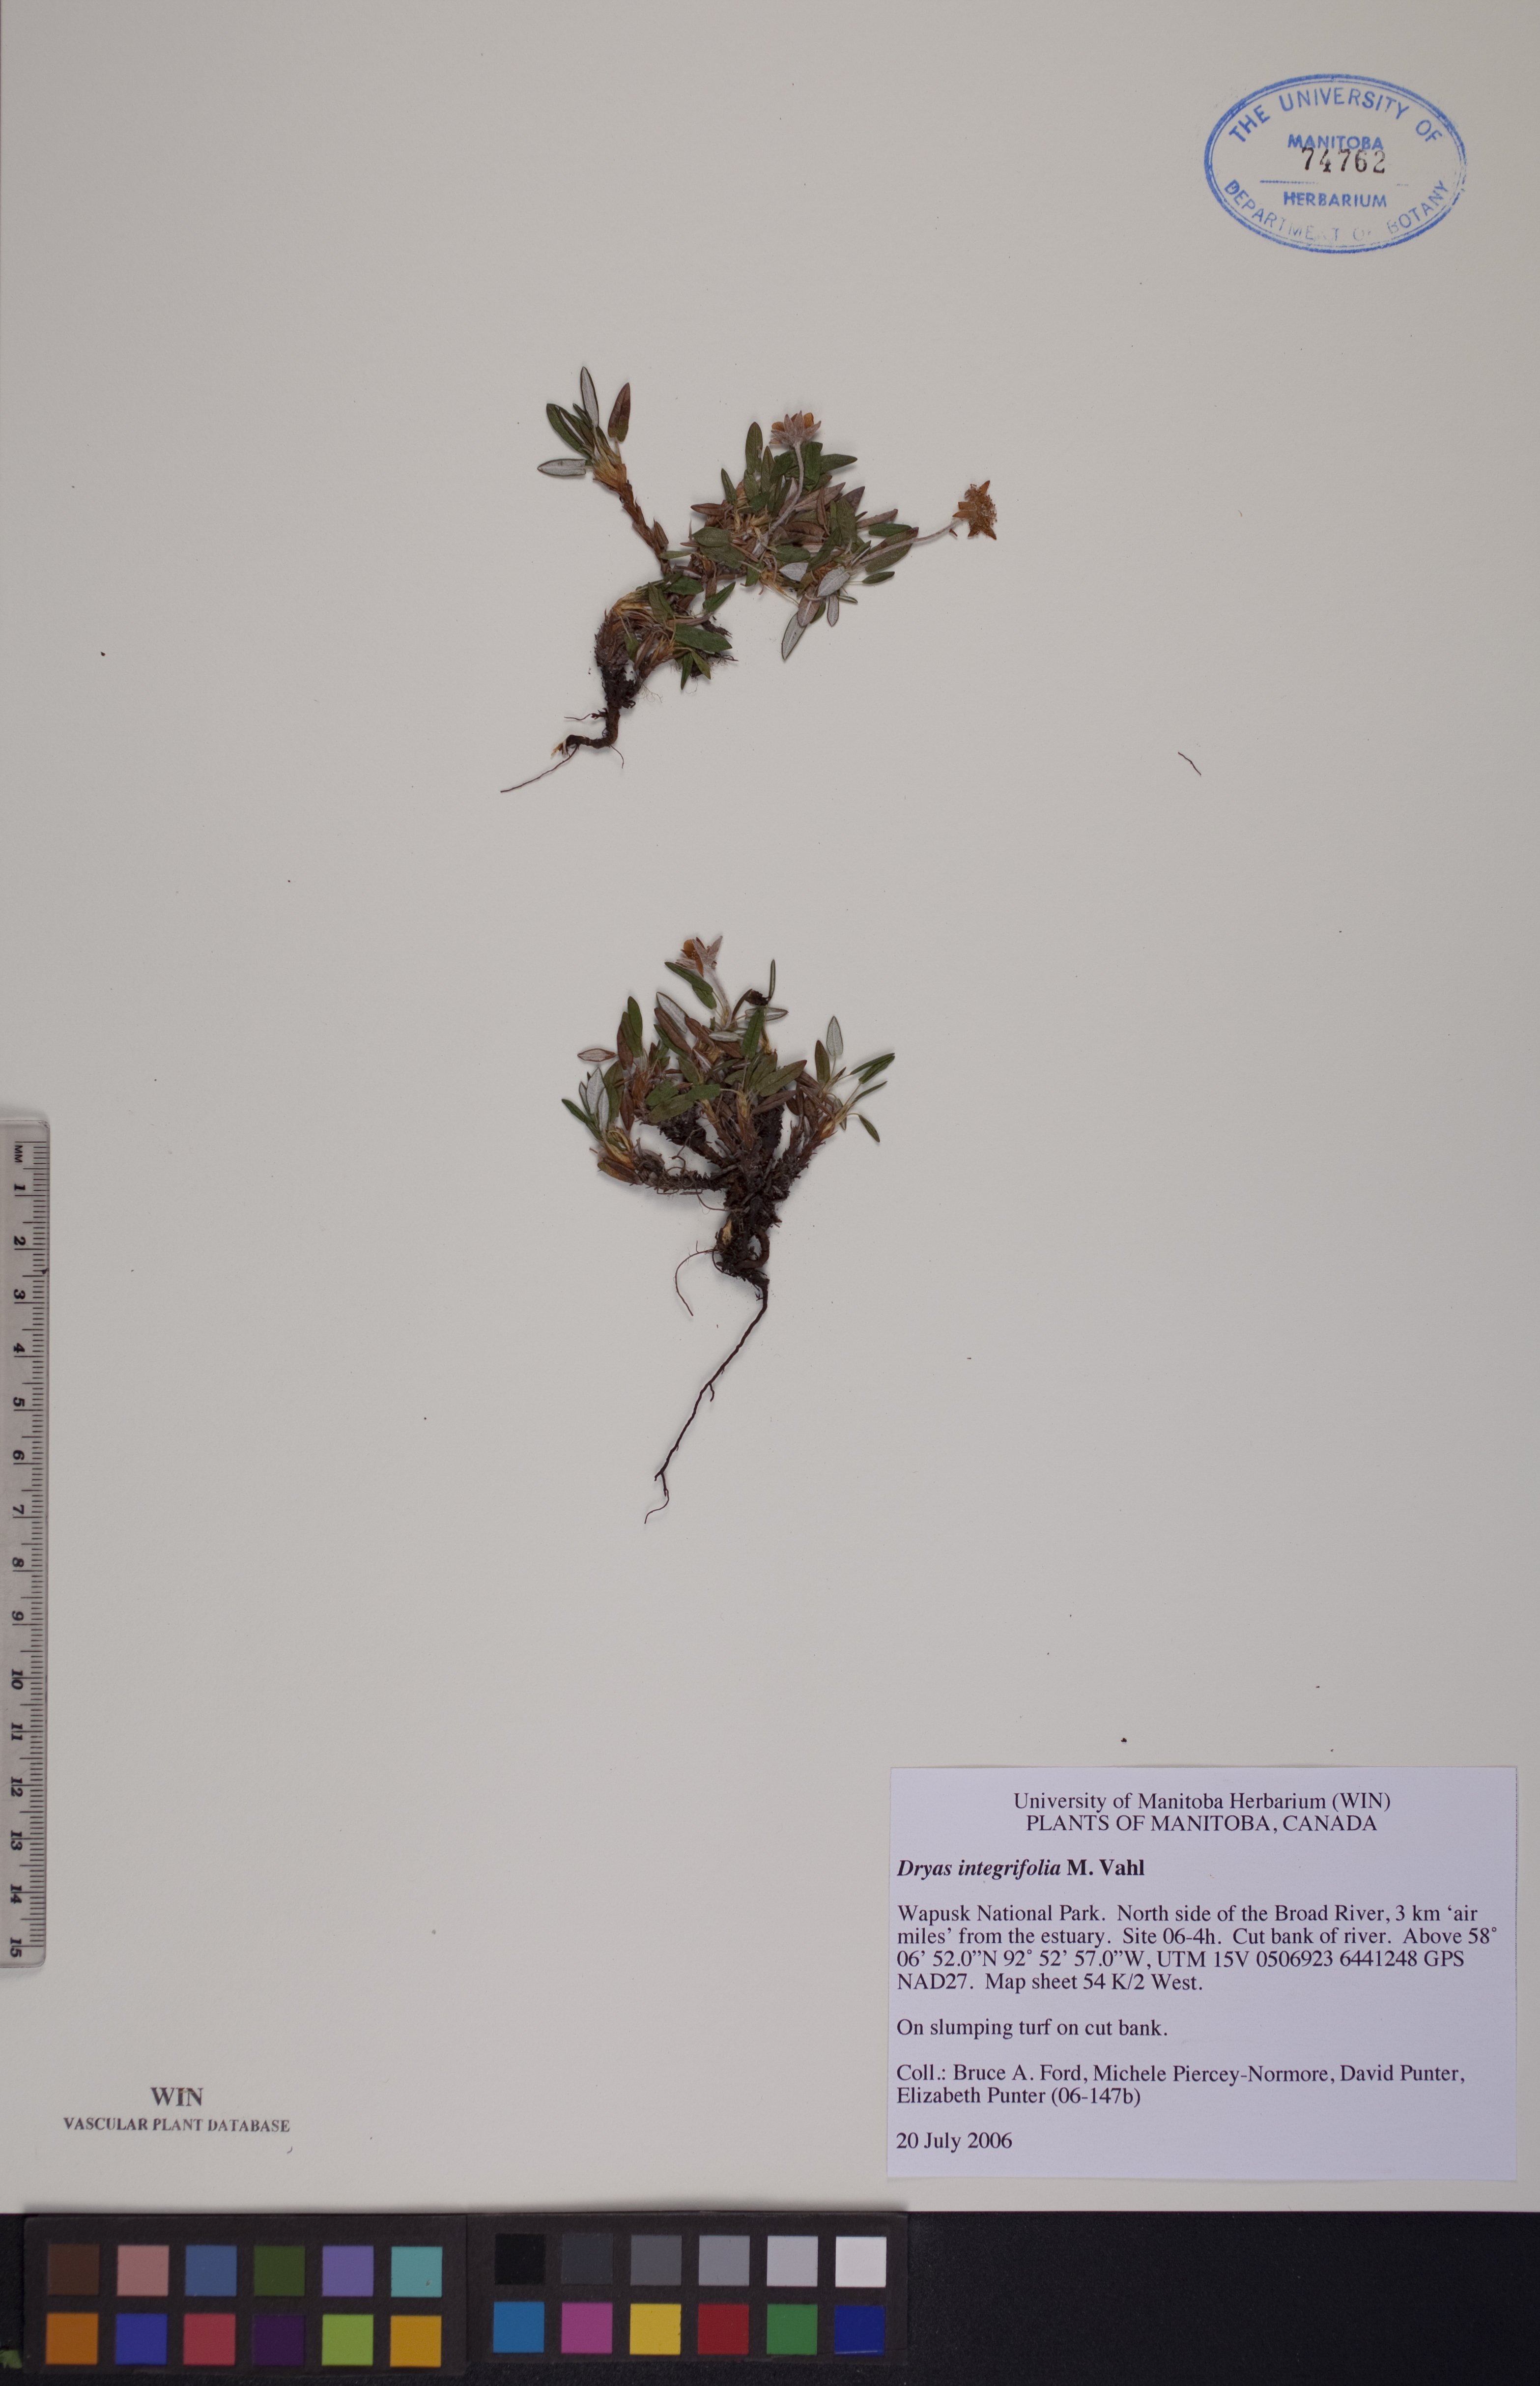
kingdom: Plantae
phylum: Tracheophyta
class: Magnoliopsida
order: Rosales
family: Rosaceae
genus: Dryas
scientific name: Dryas integrifolia
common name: Entire-leaved mountain avens
